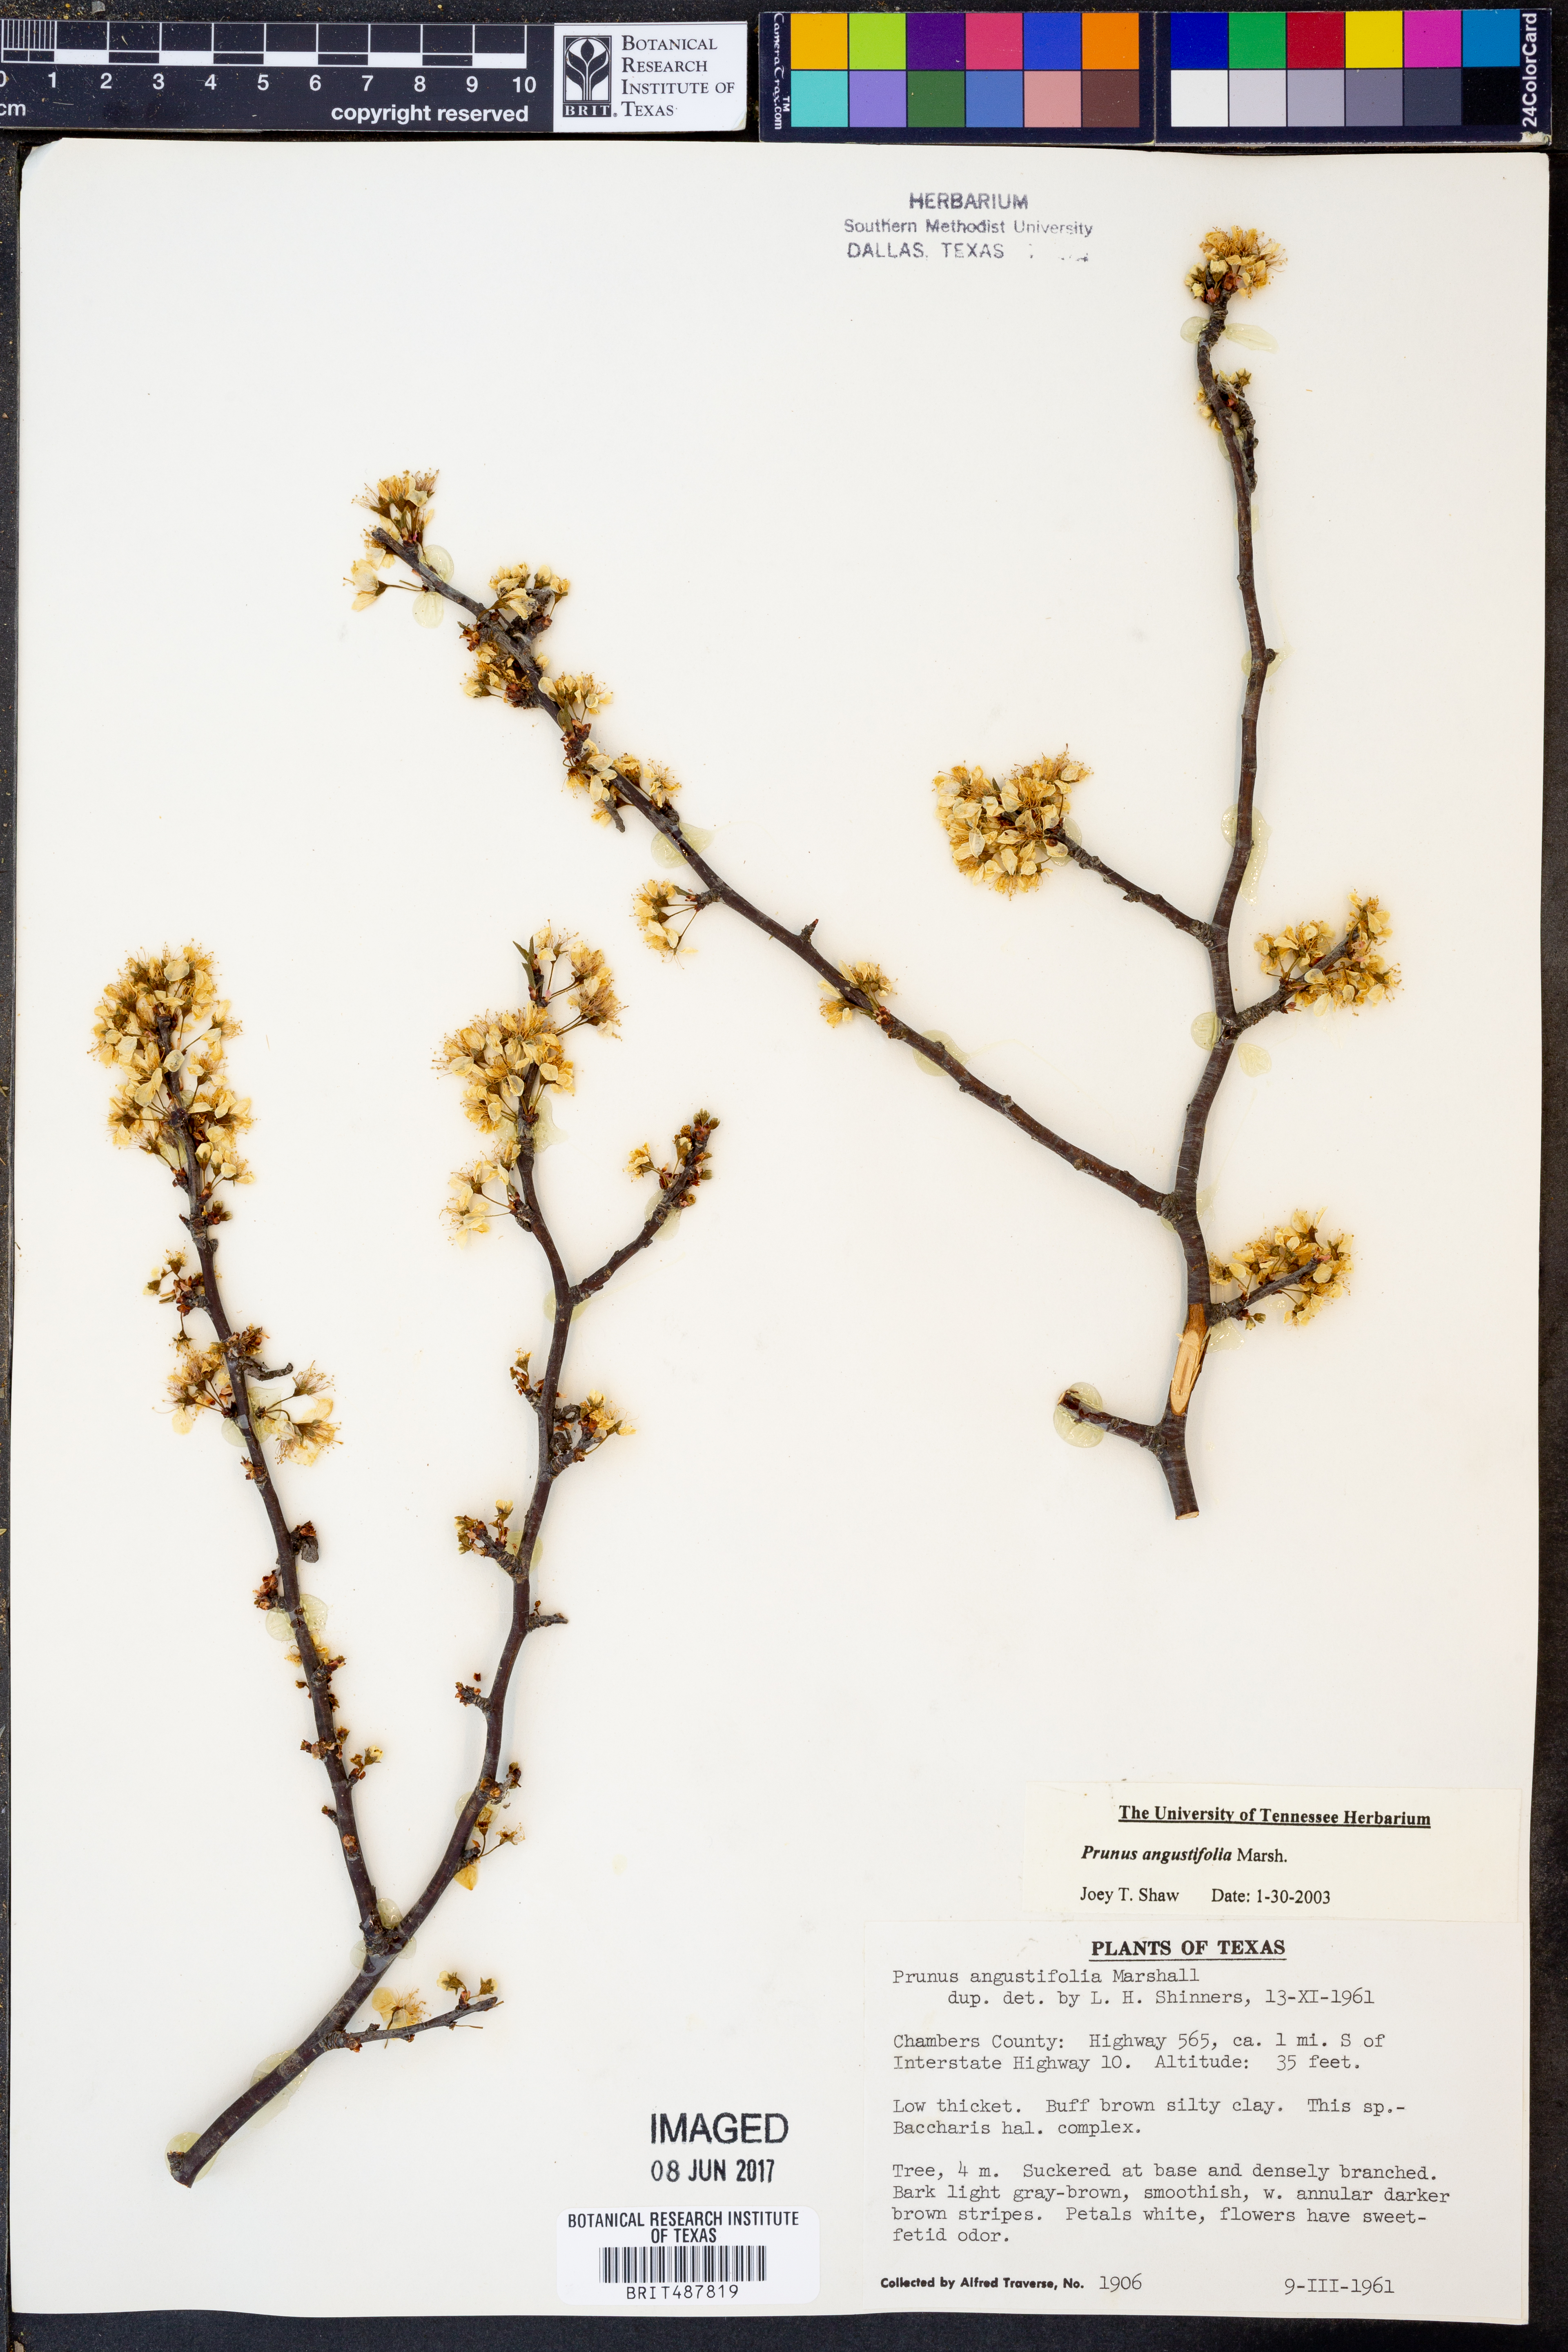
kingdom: Plantae
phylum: Tracheophyta
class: Magnoliopsida
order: Rosales
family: Rosaceae
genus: Prunus
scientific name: Prunus angustifolia
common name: Cherokee plum
